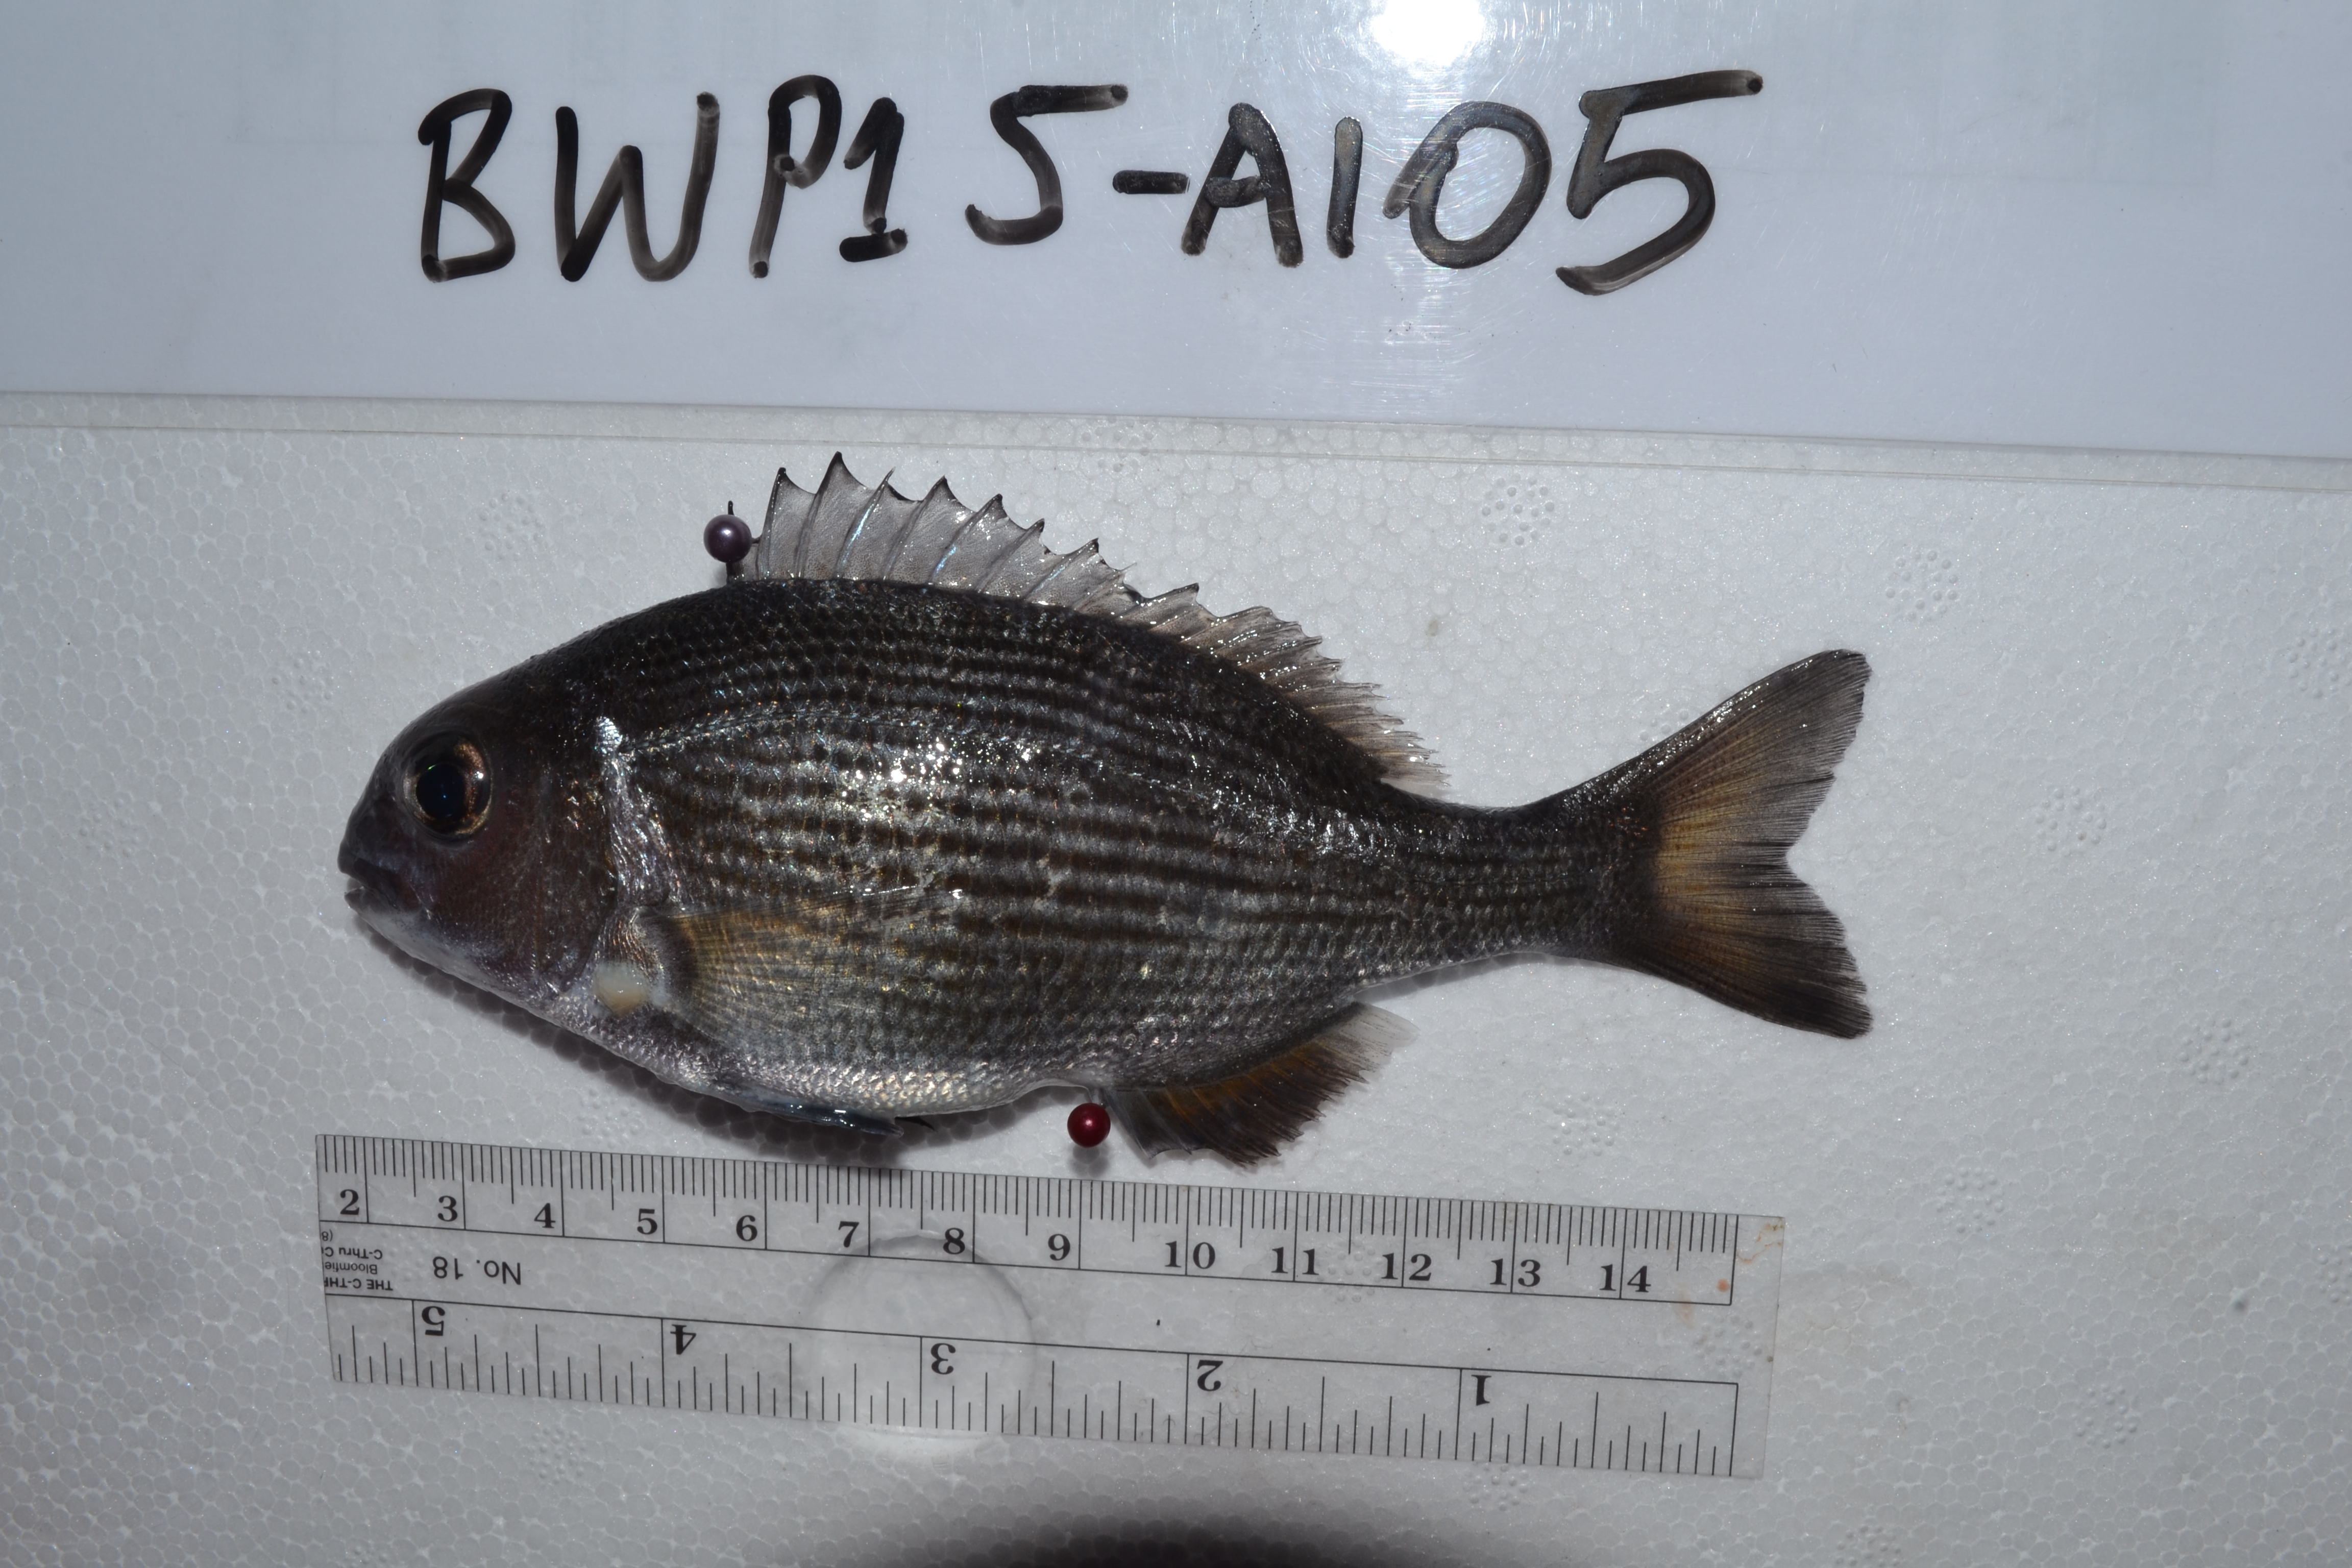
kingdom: Animalia
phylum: Chordata
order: Perciformes
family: Sparidae
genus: Sparodon
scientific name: Sparodon durbanensis
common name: White musselcracker
